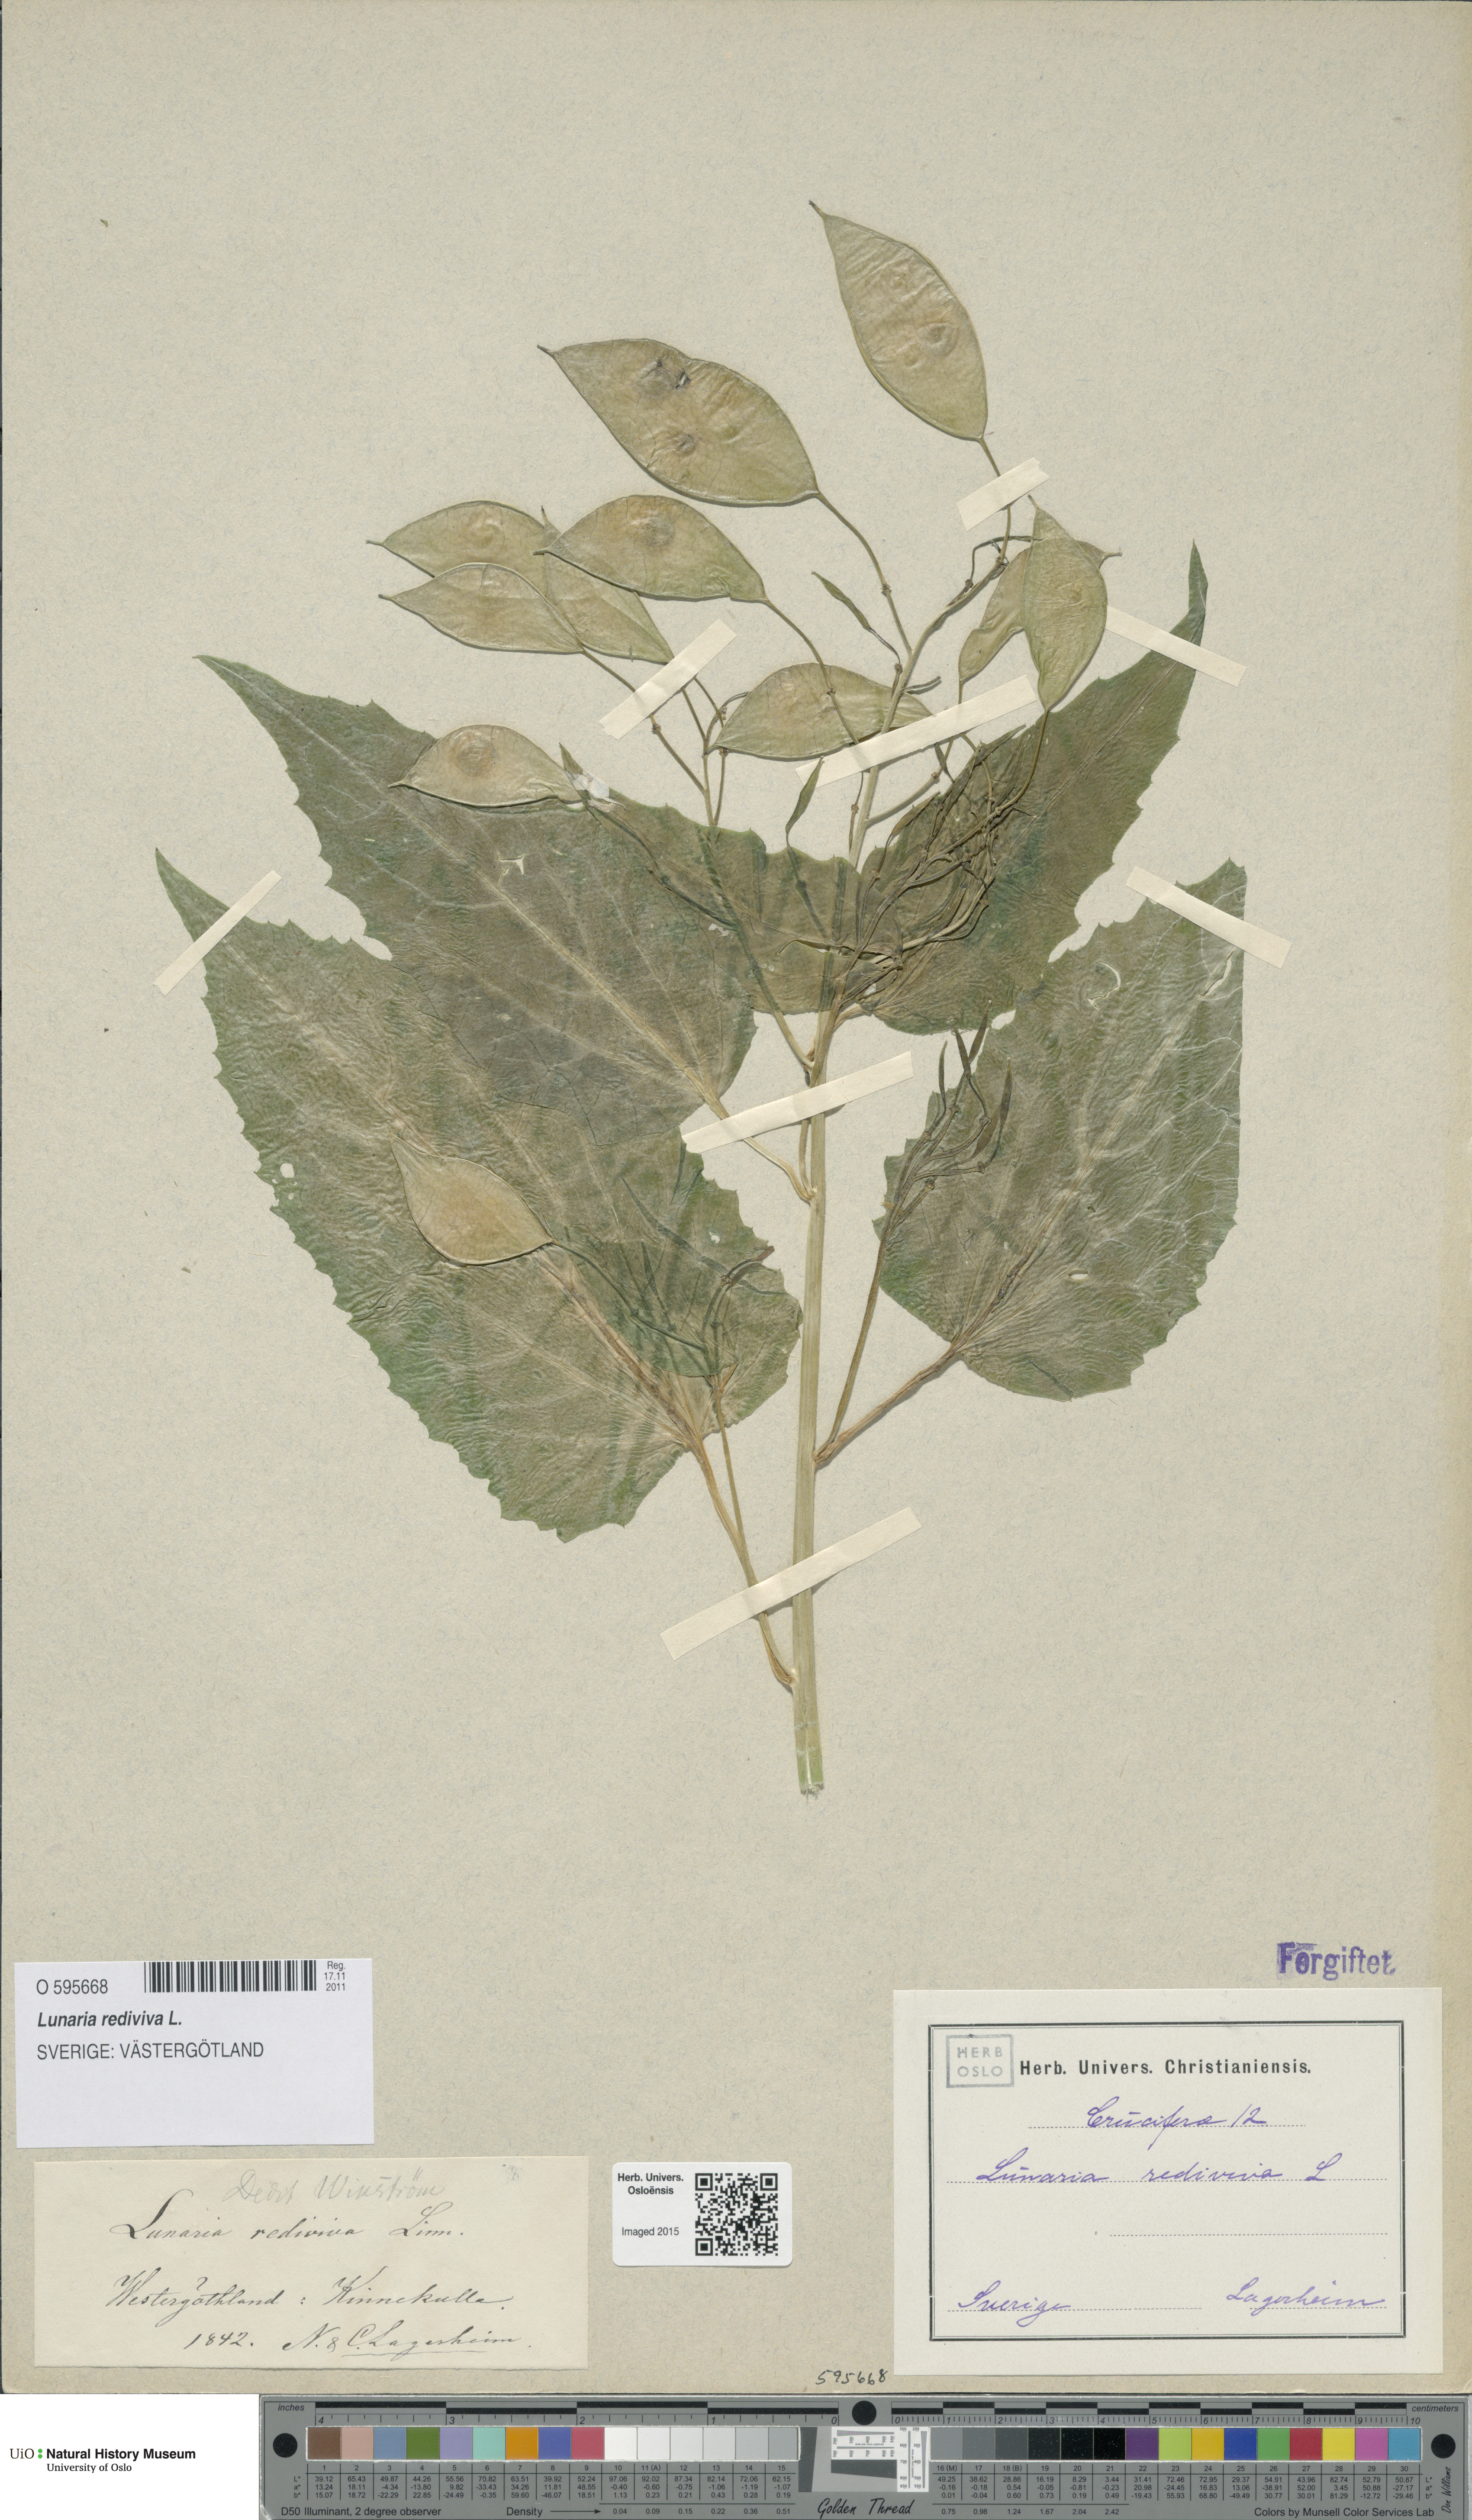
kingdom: Plantae
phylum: Tracheophyta
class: Magnoliopsida
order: Brassicales
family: Brassicaceae
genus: Lunaria
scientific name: Lunaria rediviva
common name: Perennial honesty
